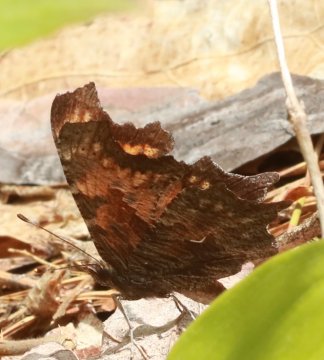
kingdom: Animalia
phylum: Arthropoda
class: Insecta
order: Lepidoptera
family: Nymphalidae
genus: Polygonia
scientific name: Polygonia progne
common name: Gray Comma
